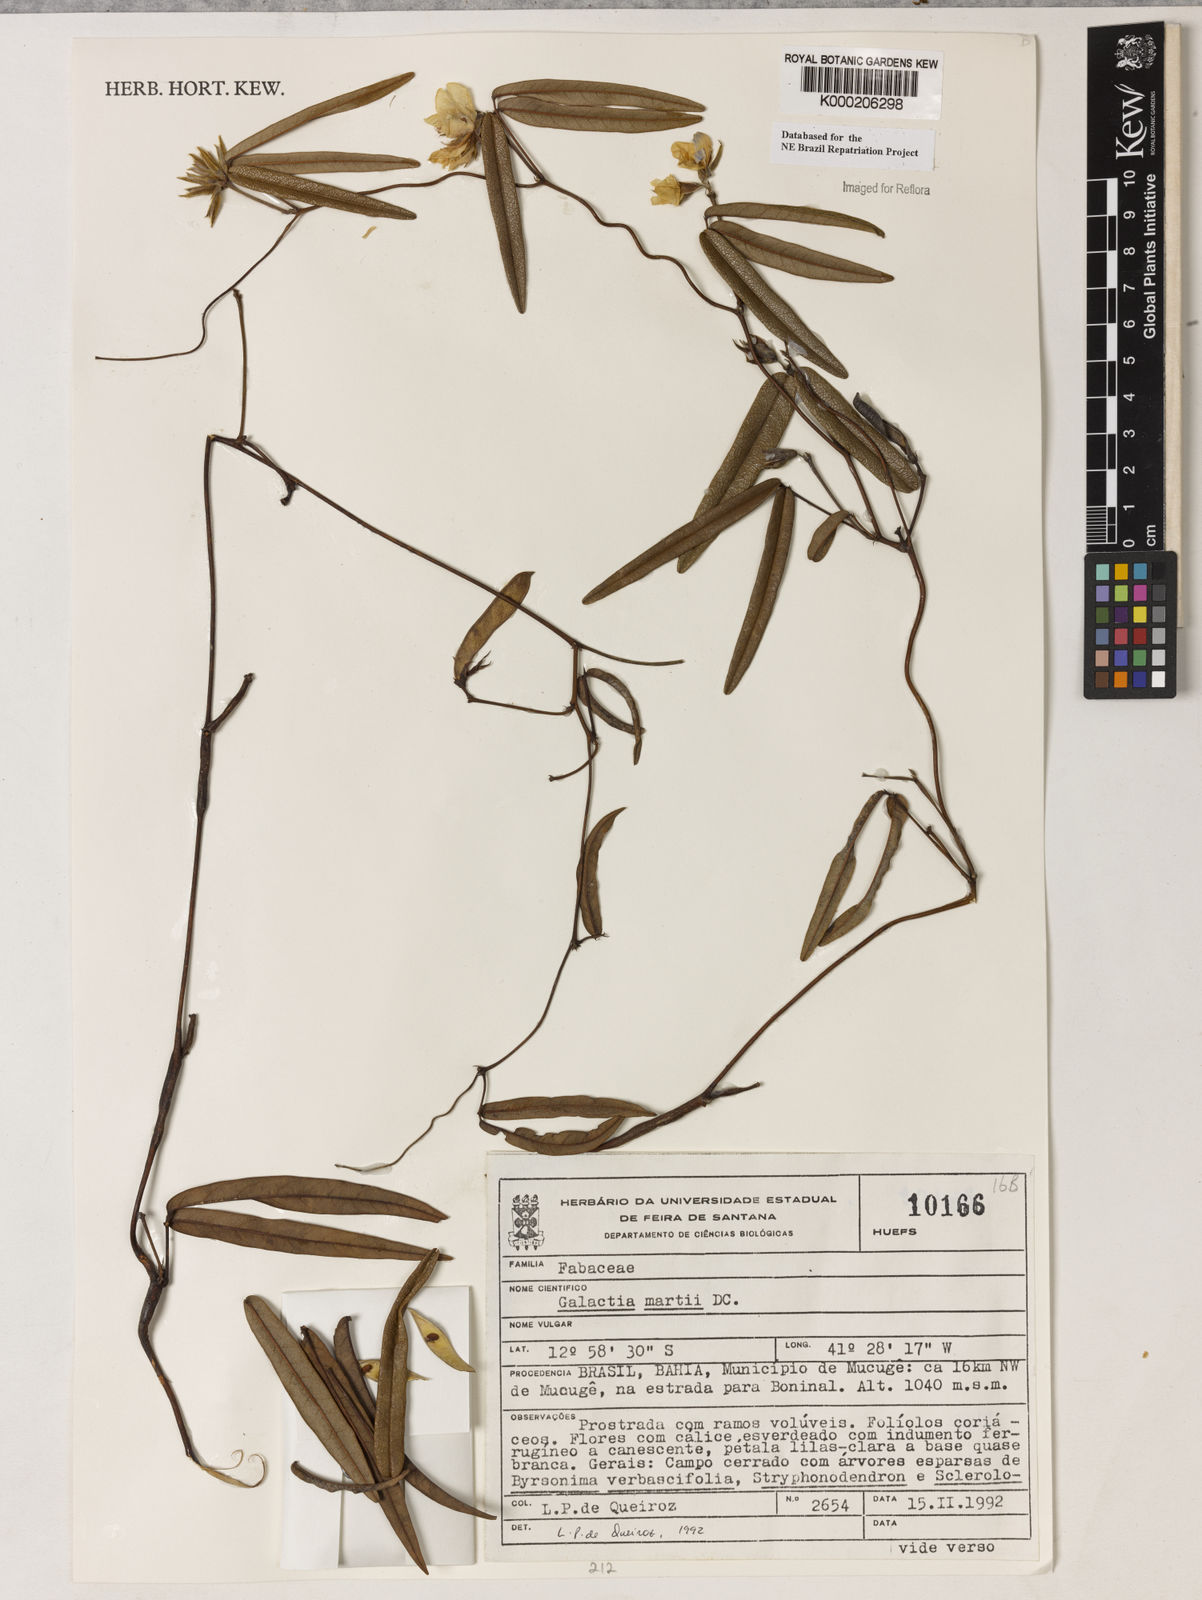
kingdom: Plantae
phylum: Tracheophyta
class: Magnoliopsida
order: Fabales
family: Fabaceae
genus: Betencourtia
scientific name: Betencourtia martii
